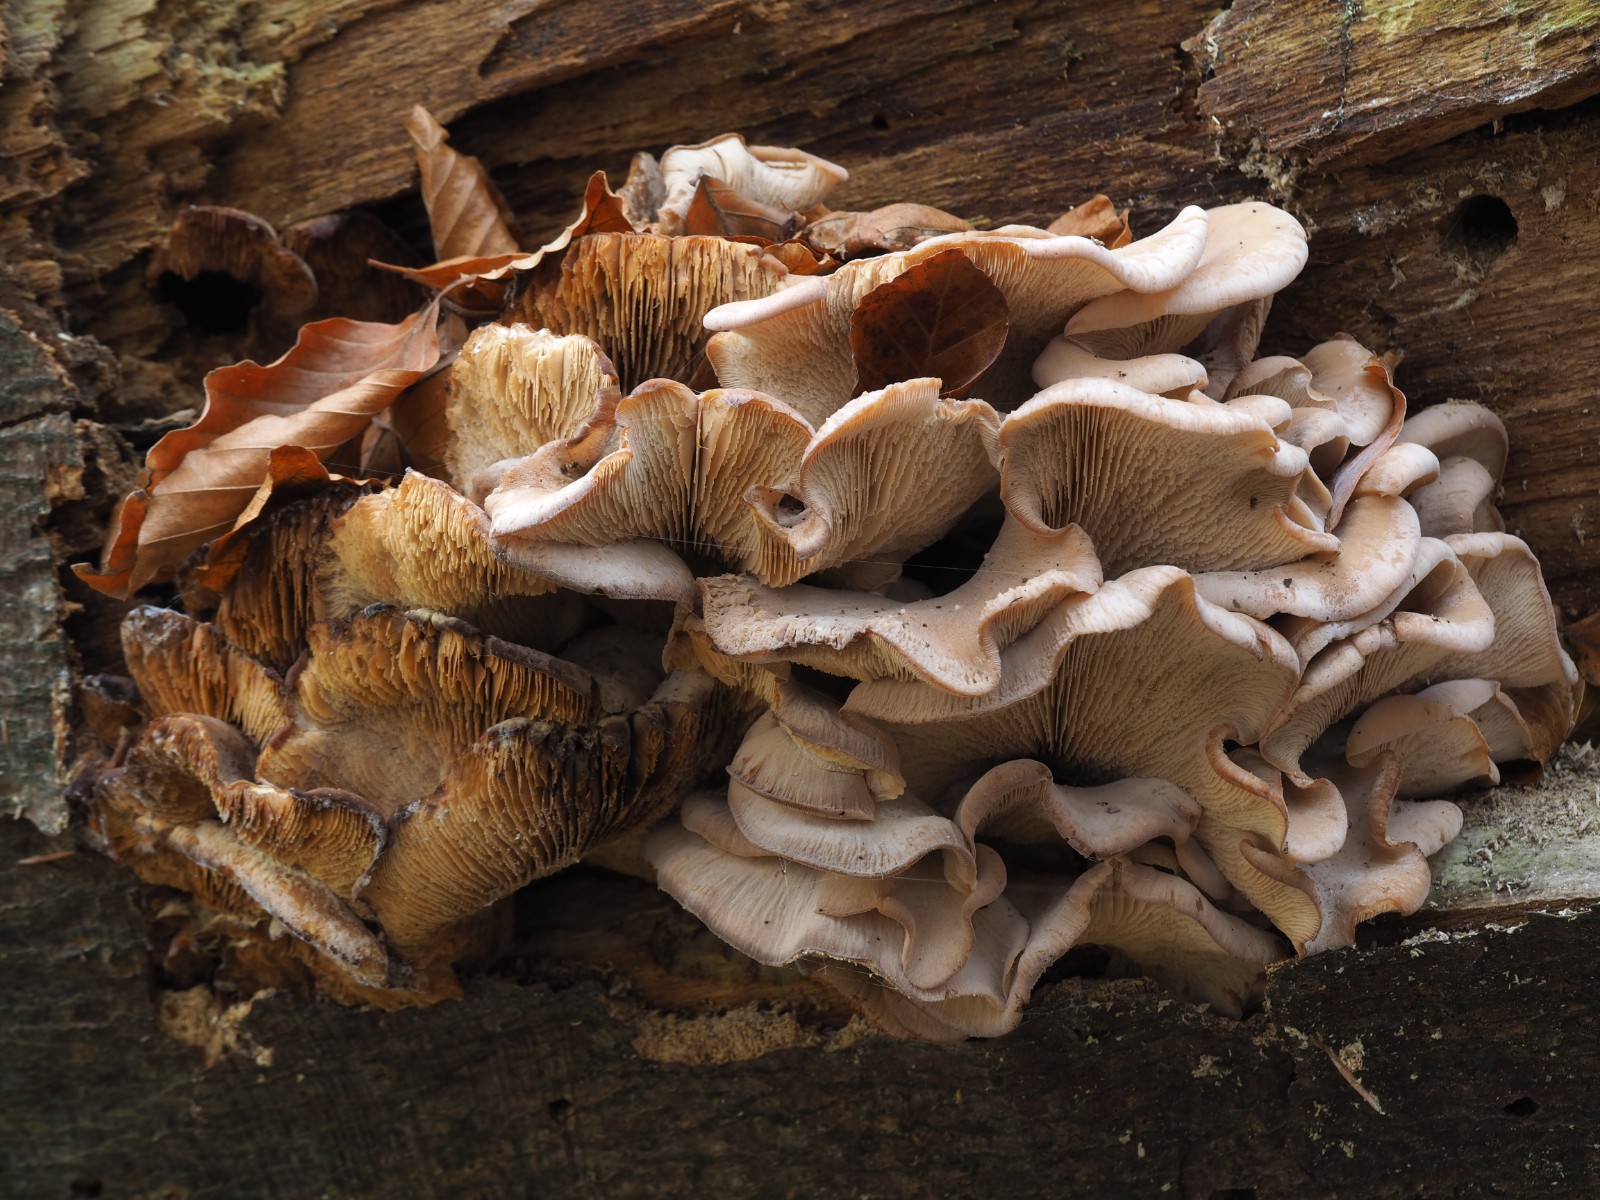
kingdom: Fungi
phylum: Basidiomycota
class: Agaricomycetes
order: Russulales
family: Auriscalpiaceae
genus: Lentinellus
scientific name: Lentinellus ursinus
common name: børstehåret savbladhat
